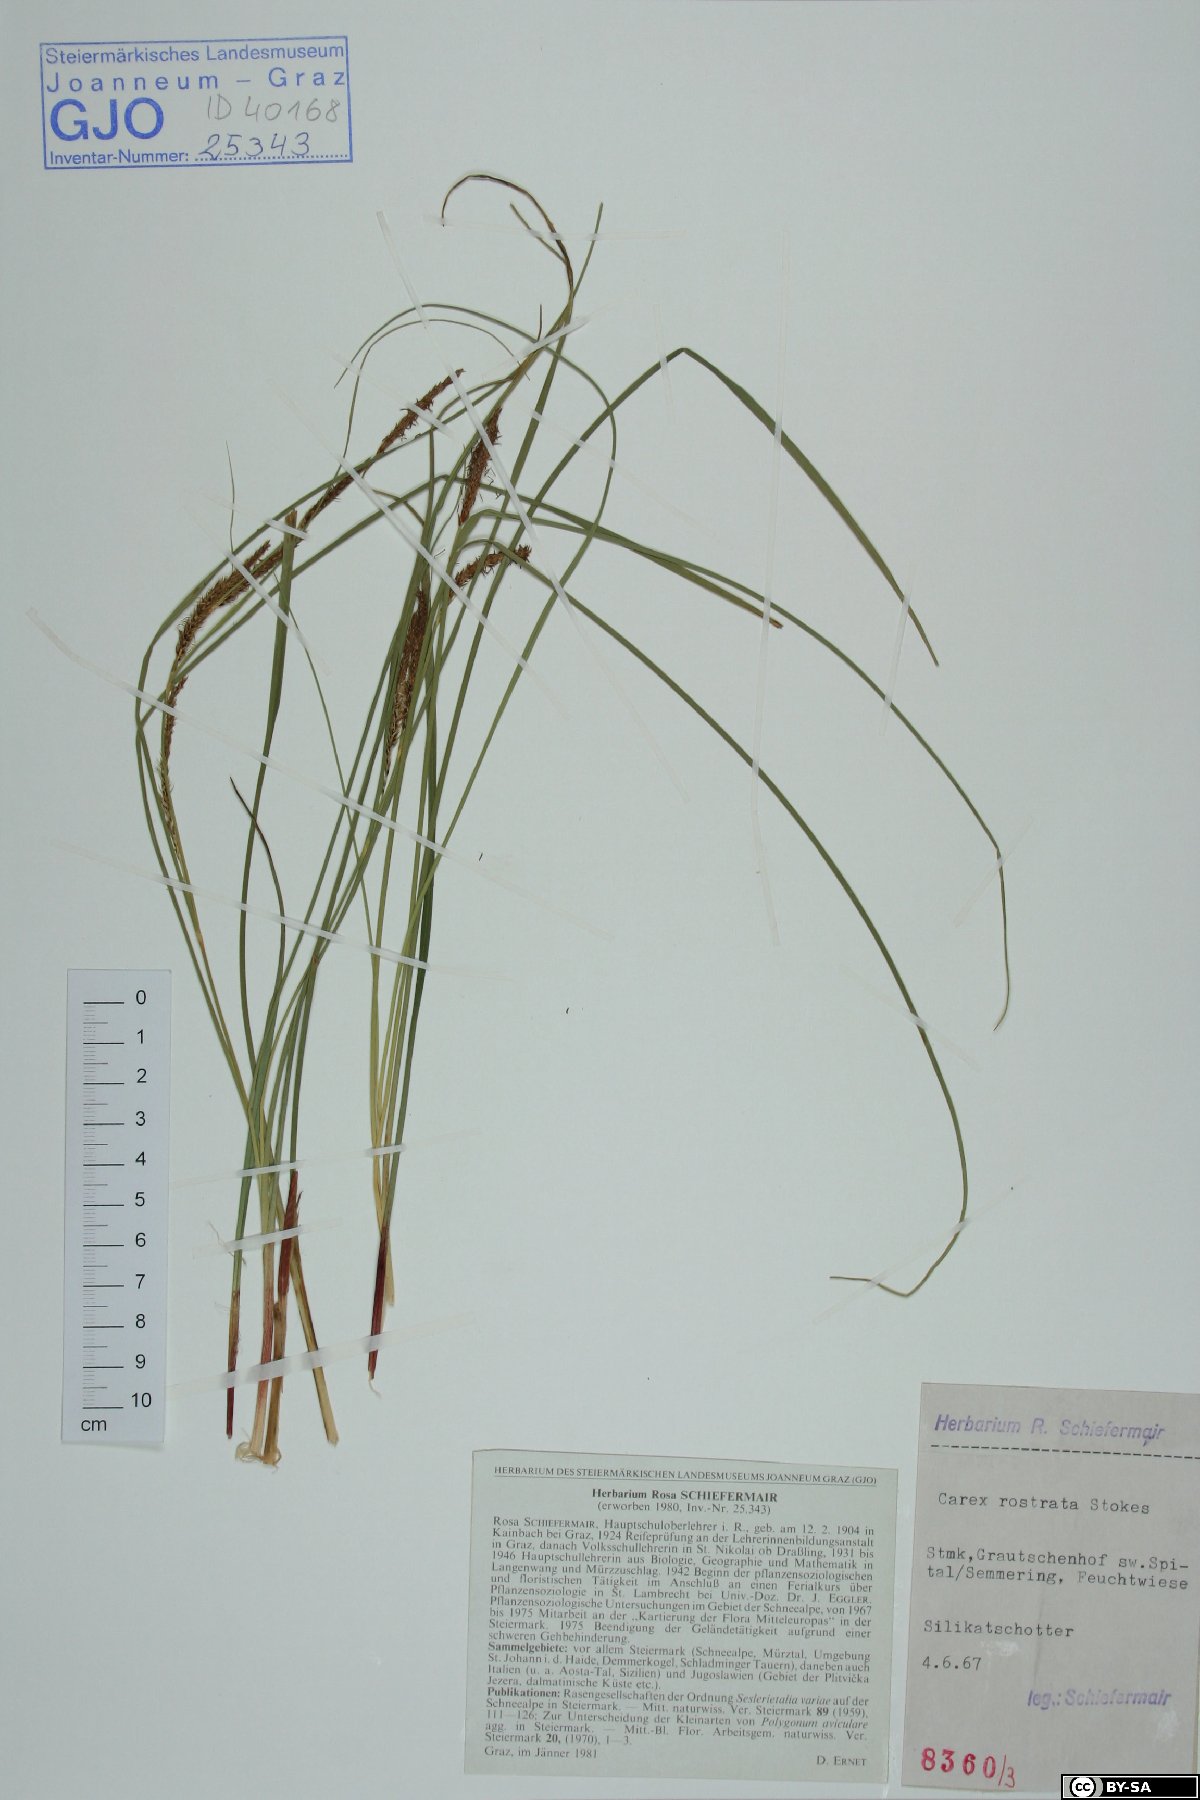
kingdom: Plantae
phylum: Tracheophyta
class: Liliopsida
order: Poales
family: Cyperaceae
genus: Carex
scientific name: Carex rostrata
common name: Bottle sedge
